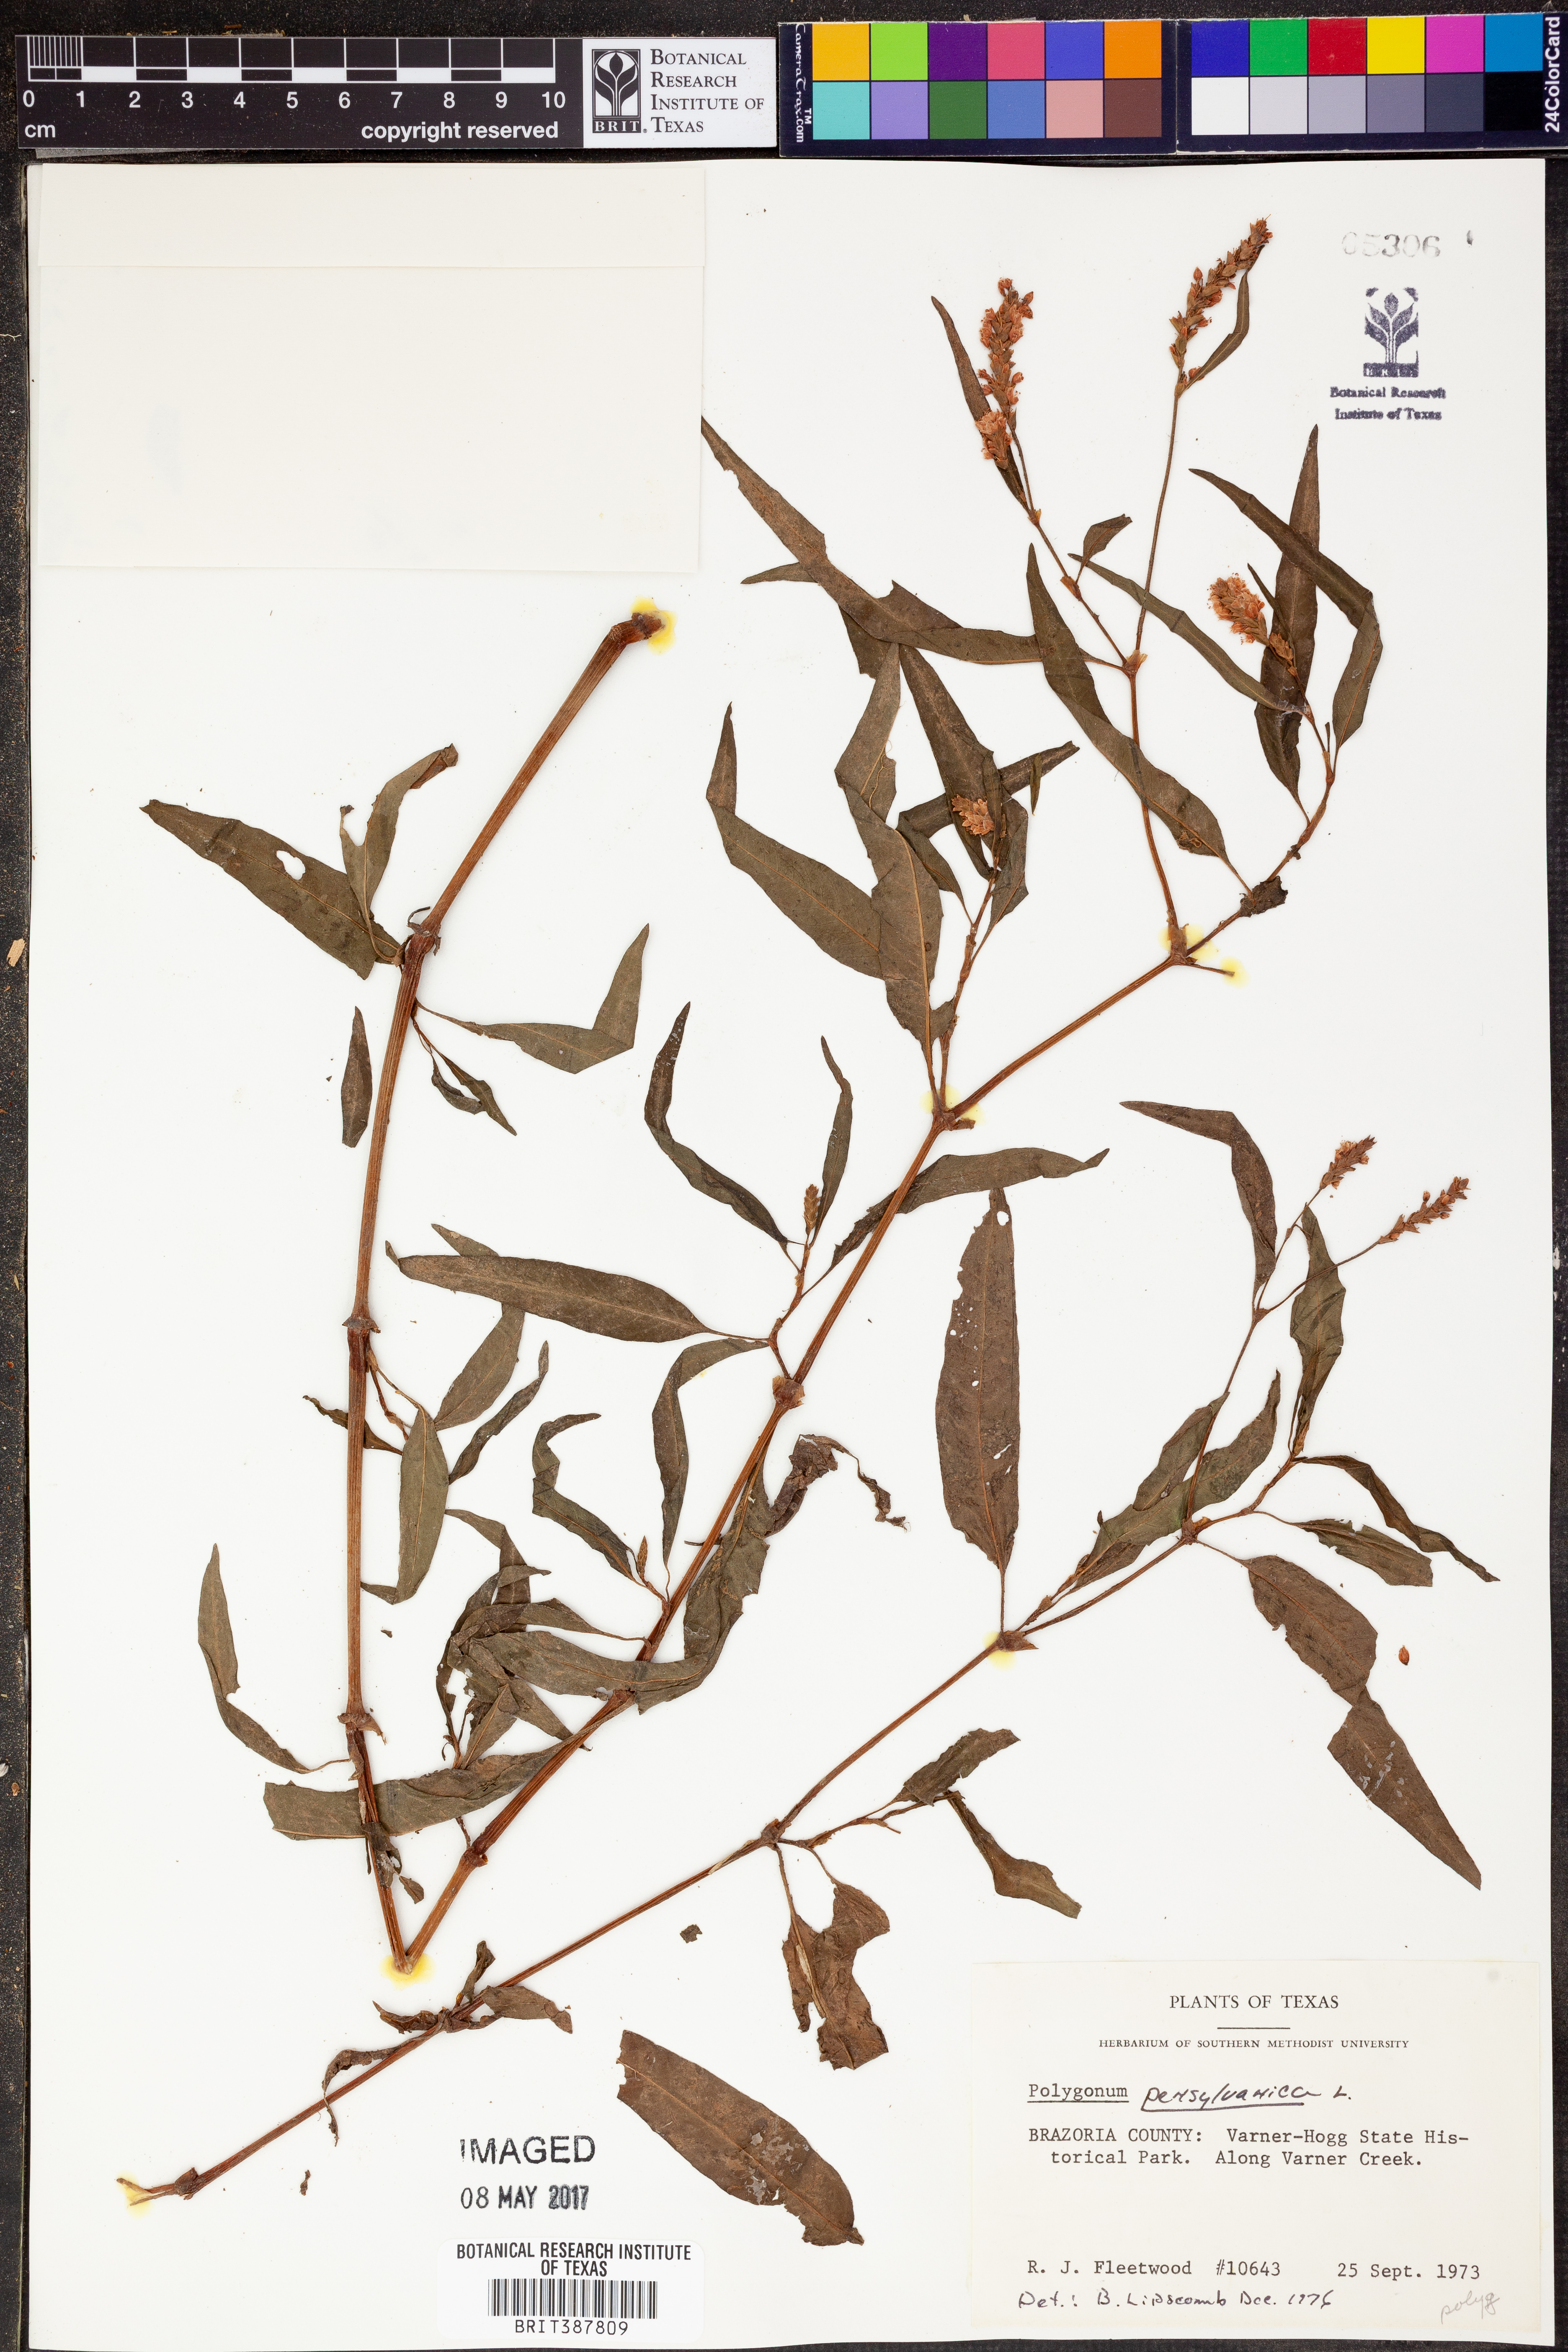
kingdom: Plantae
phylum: Tracheophyta
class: Magnoliopsida
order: Caryophyllales
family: Polygonaceae
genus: Persicaria
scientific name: Persicaria pensylvanica
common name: Pinkweed
